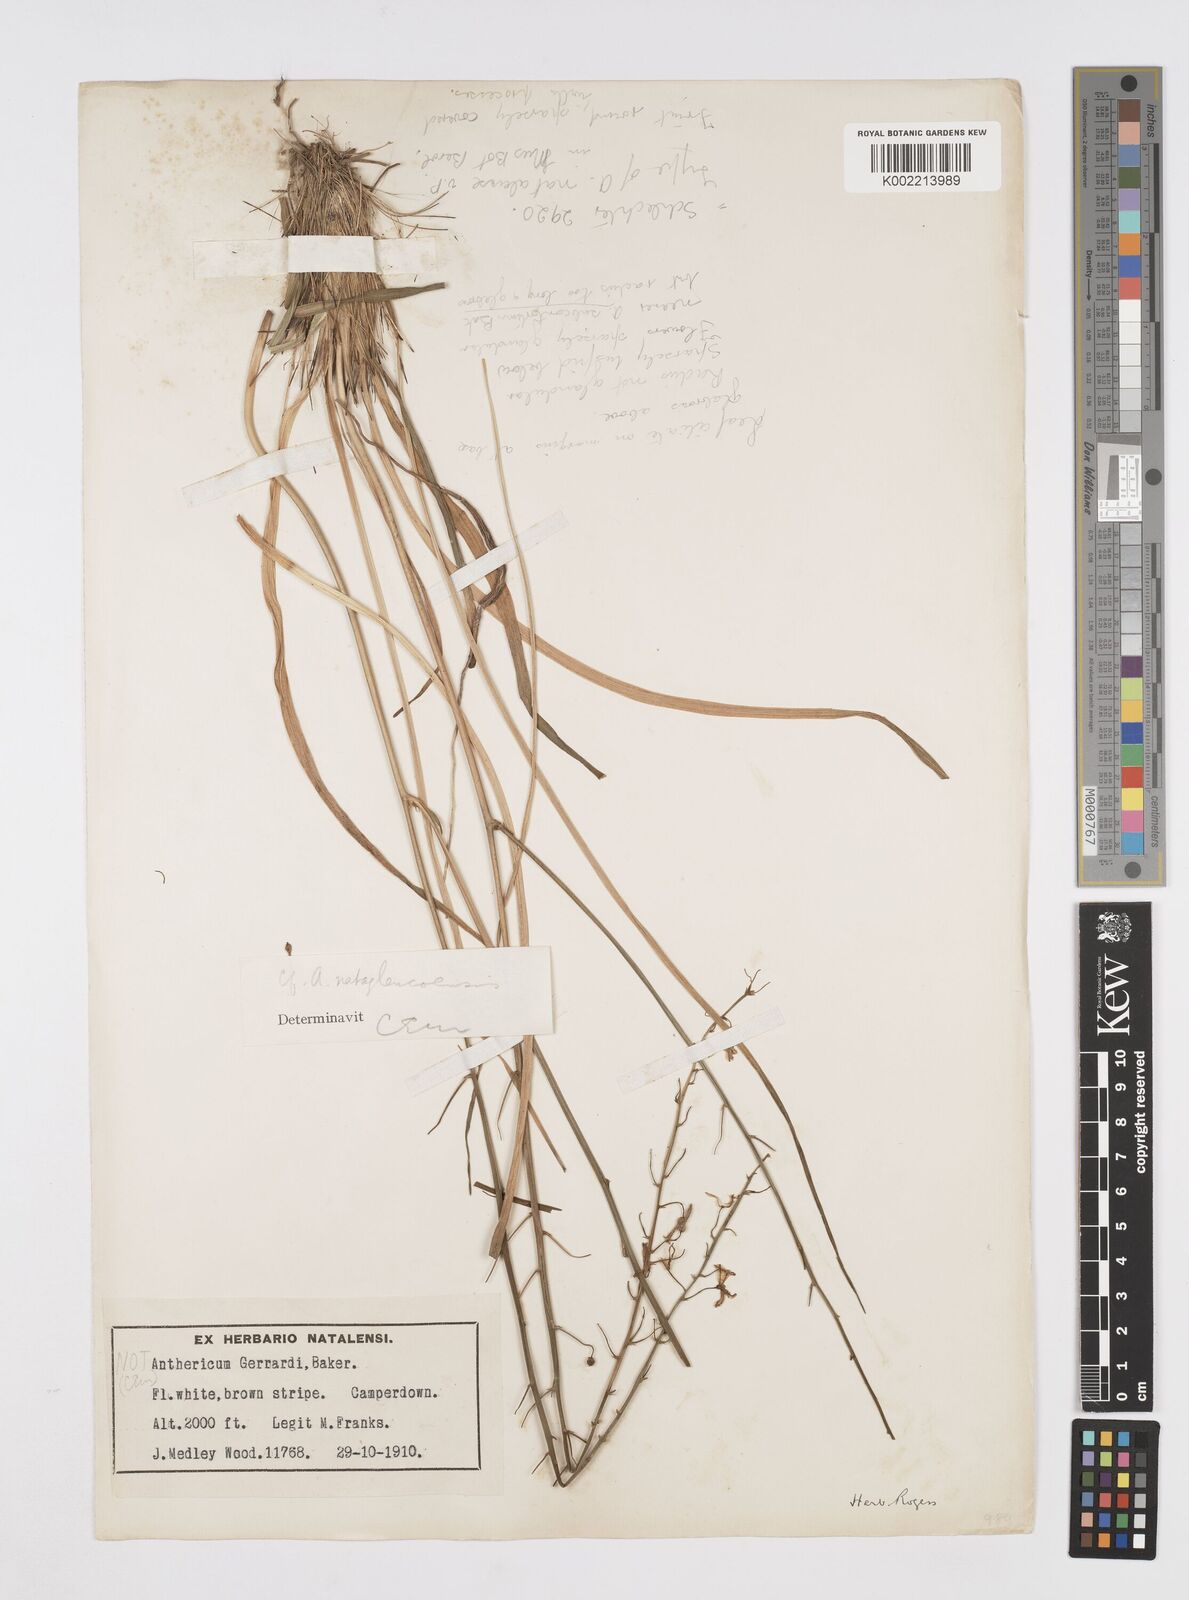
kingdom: Plantae
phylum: Tracheophyta
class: Liliopsida
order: Asparagales
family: Asphodelaceae
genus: Trachyandra
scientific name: Trachyandra asperata
